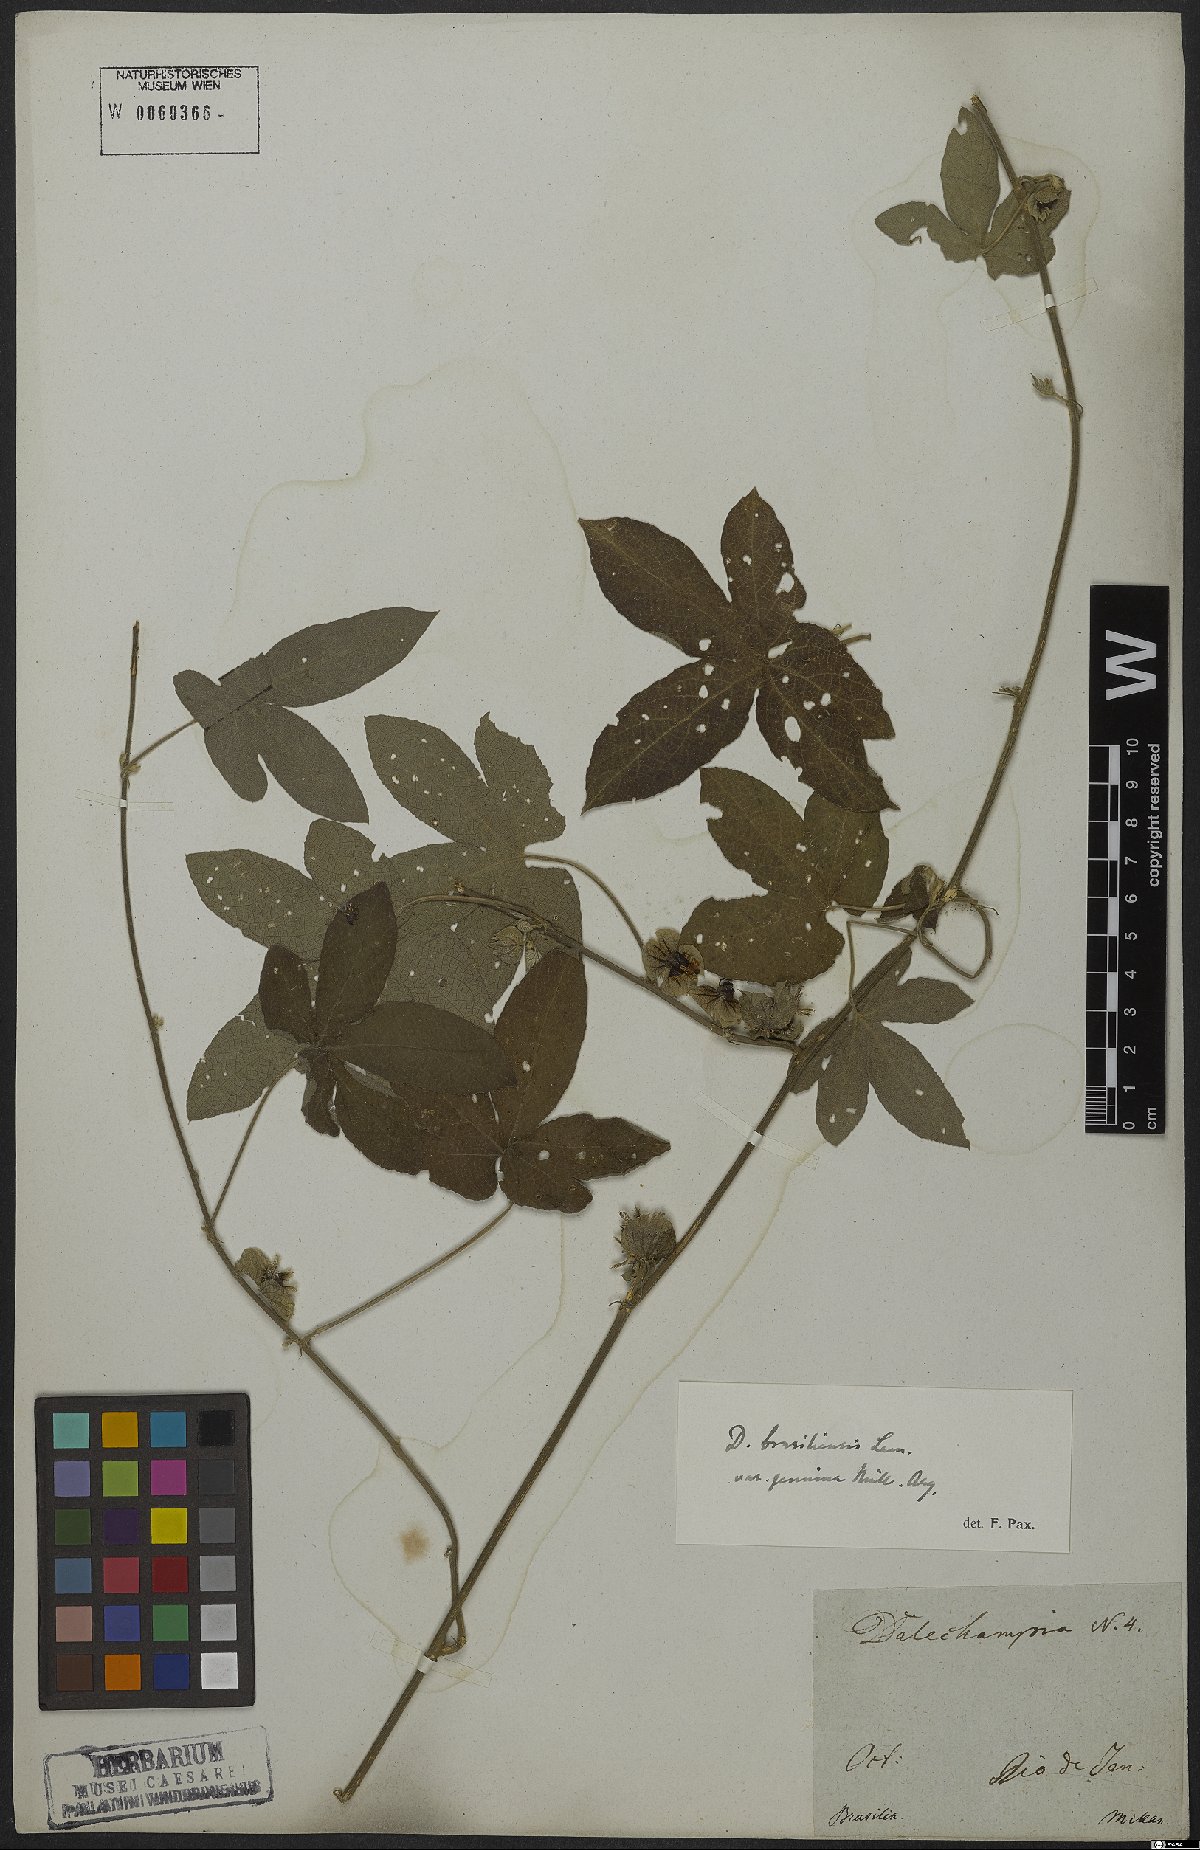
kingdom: Plantae
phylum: Tracheophyta
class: Magnoliopsida
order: Malpighiales
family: Euphorbiaceae
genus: Dalechampia
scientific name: Dalechampia brasiliensis
